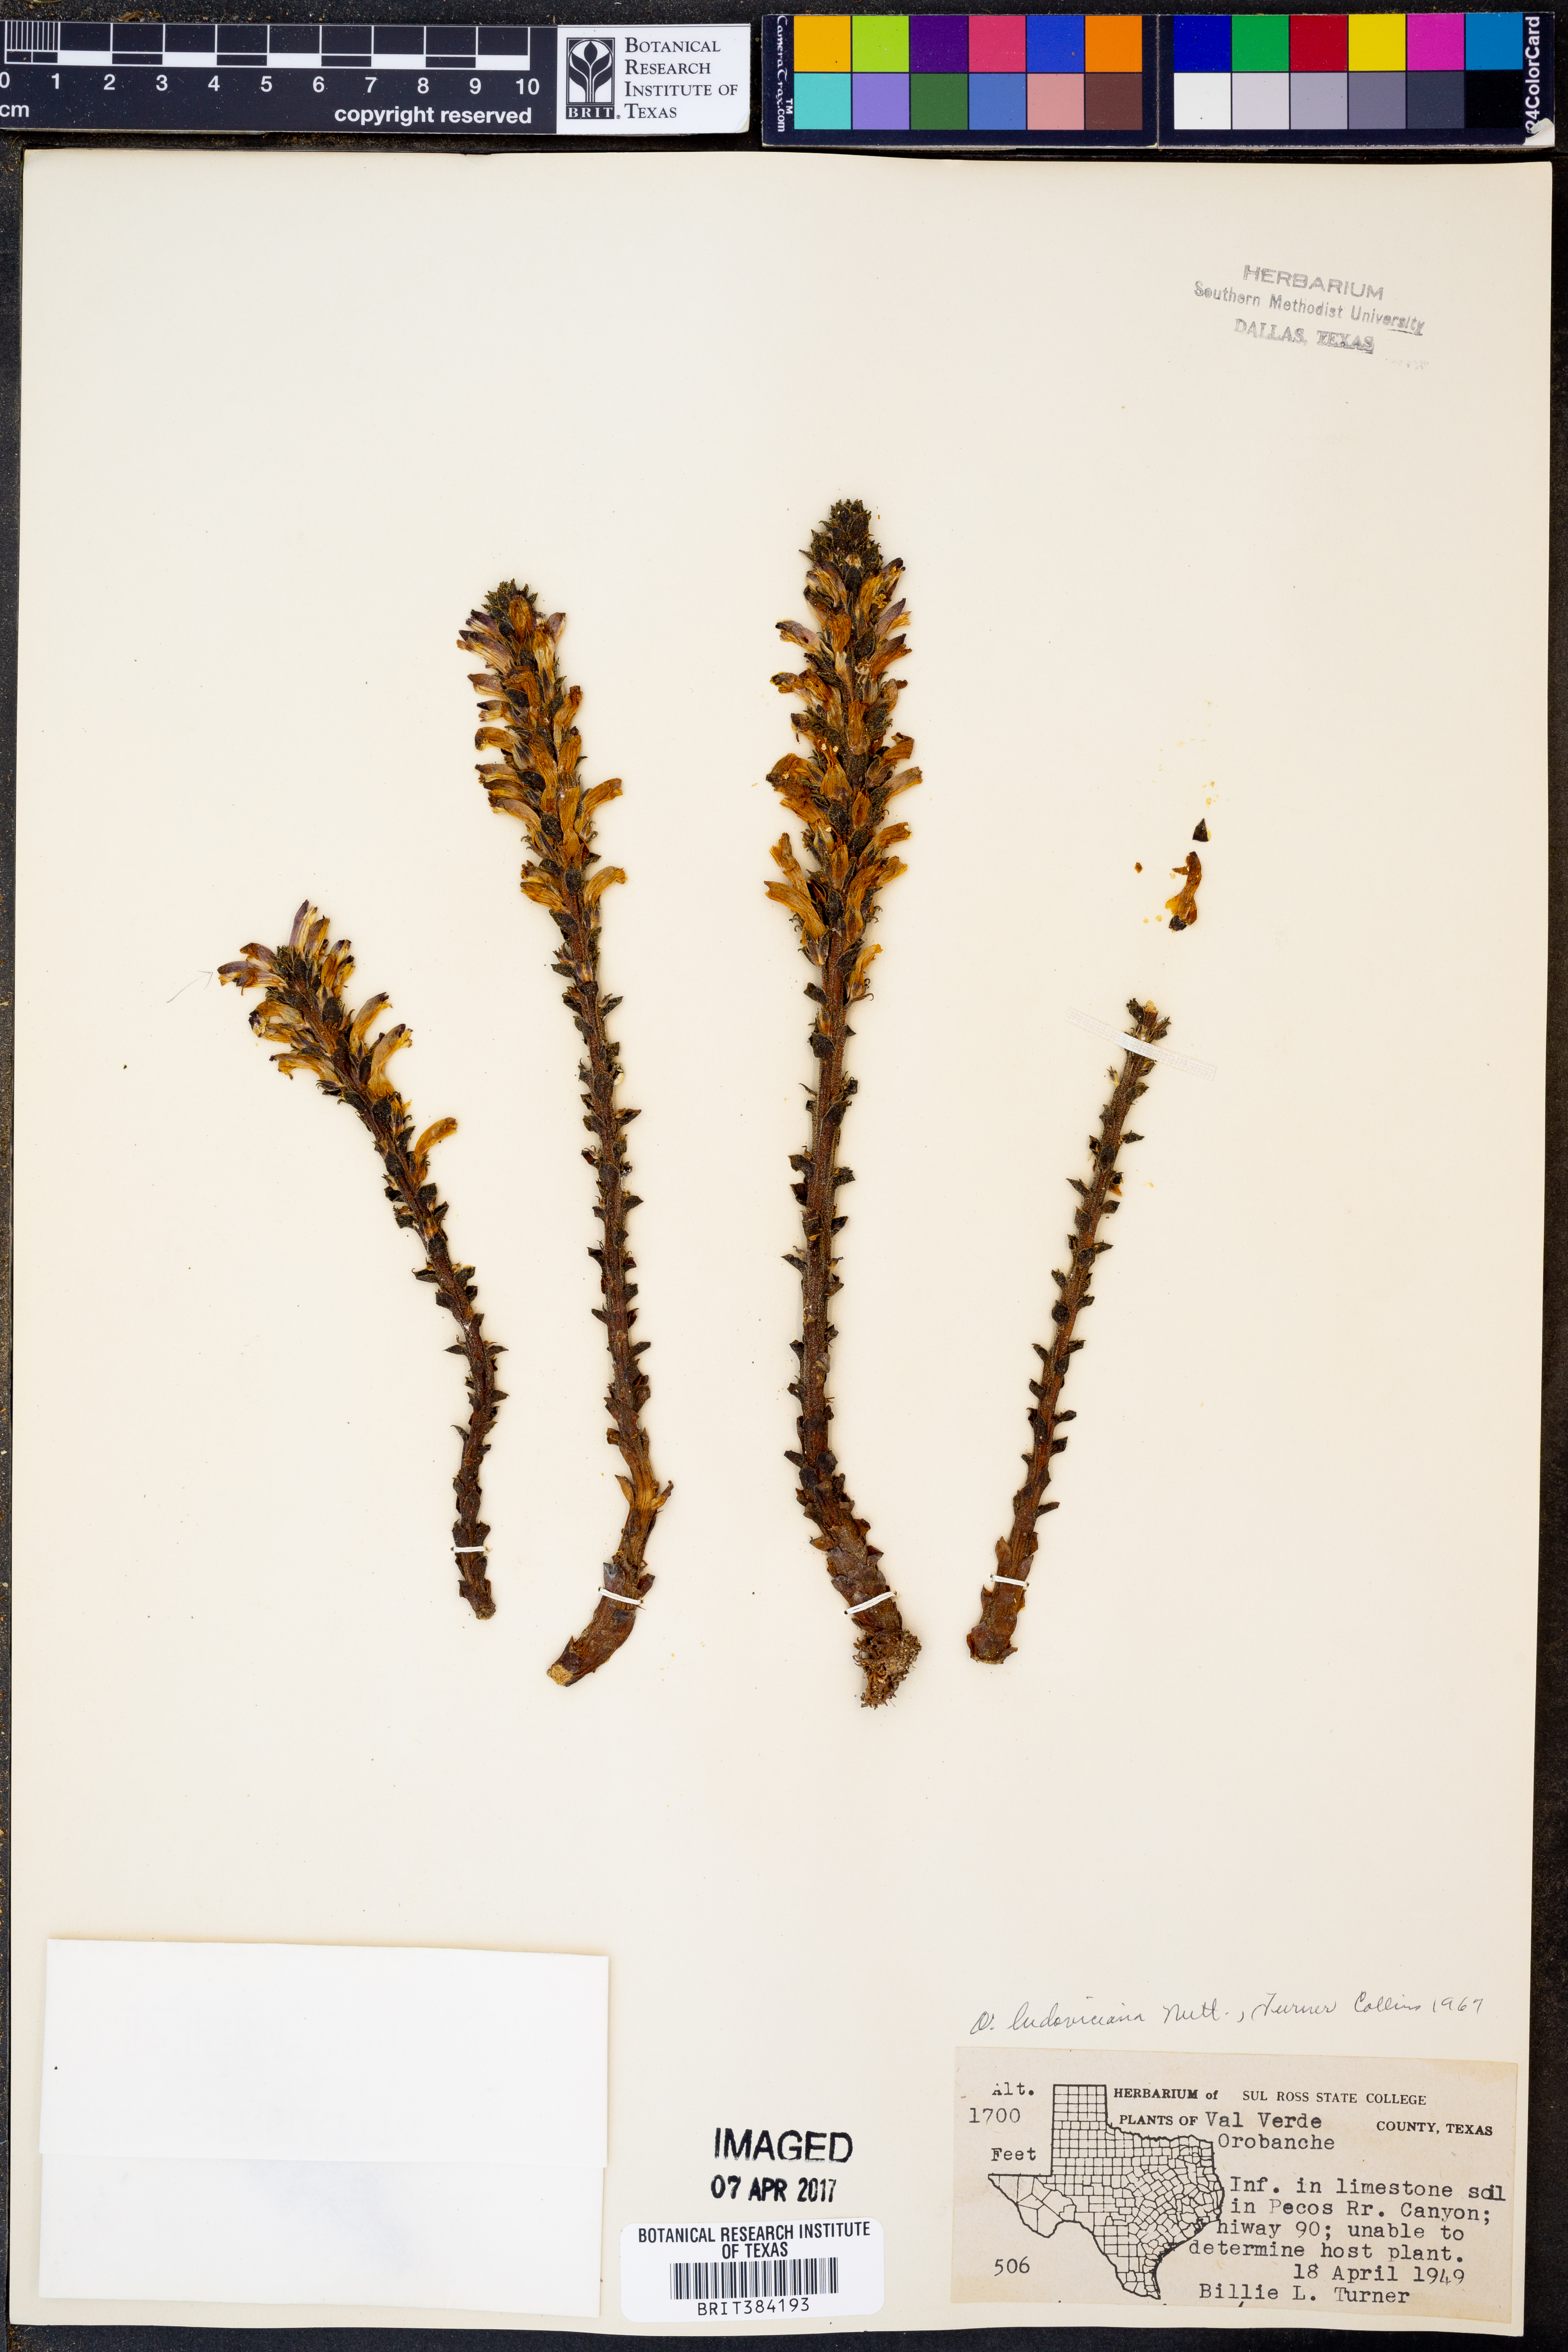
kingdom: Plantae
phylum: Tracheophyta
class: Magnoliopsida
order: Lamiales
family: Orobanchaceae
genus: Aphyllon
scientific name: Aphyllon ludovicianum
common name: Louisiana broomrape
